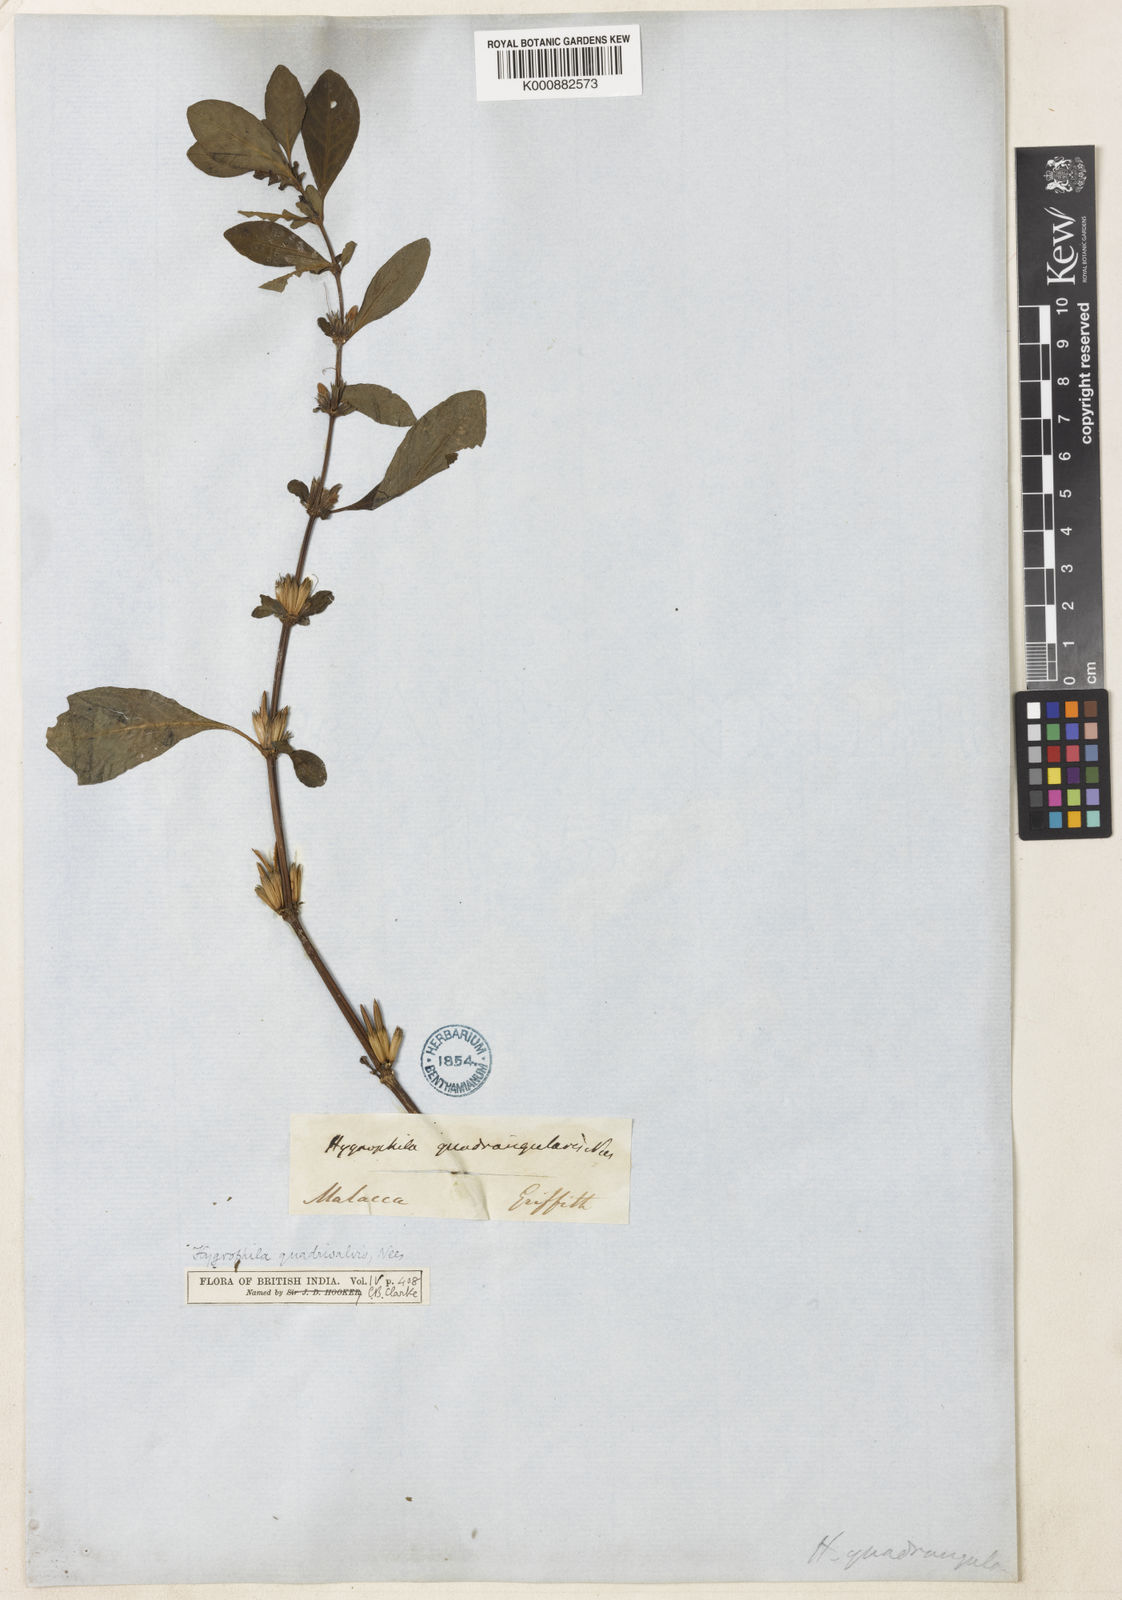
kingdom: Plantae
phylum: Tracheophyta
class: Magnoliopsida
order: Lamiales
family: Acanthaceae
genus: Hygrophila
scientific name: Hygrophila ringens
